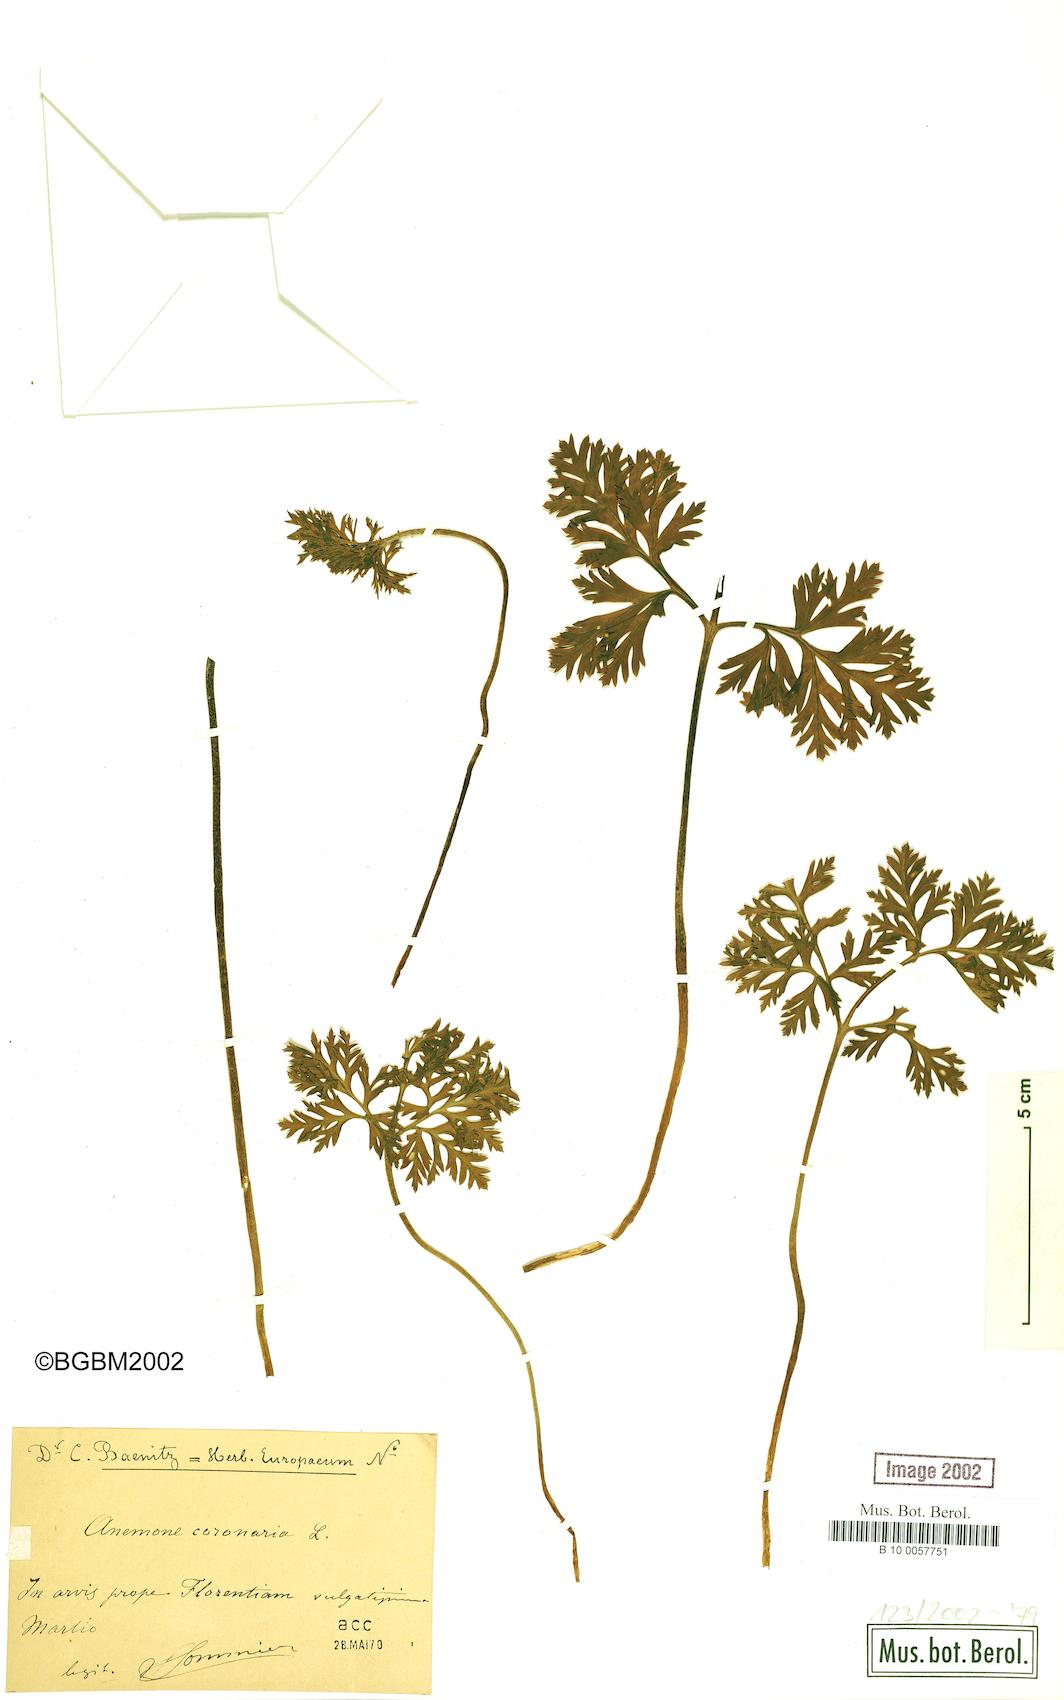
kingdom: Plantae
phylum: Tracheophyta
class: Magnoliopsida
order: Ranunculales
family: Ranunculaceae
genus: Anemone
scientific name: Anemone coronaria
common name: Poppy anemone
